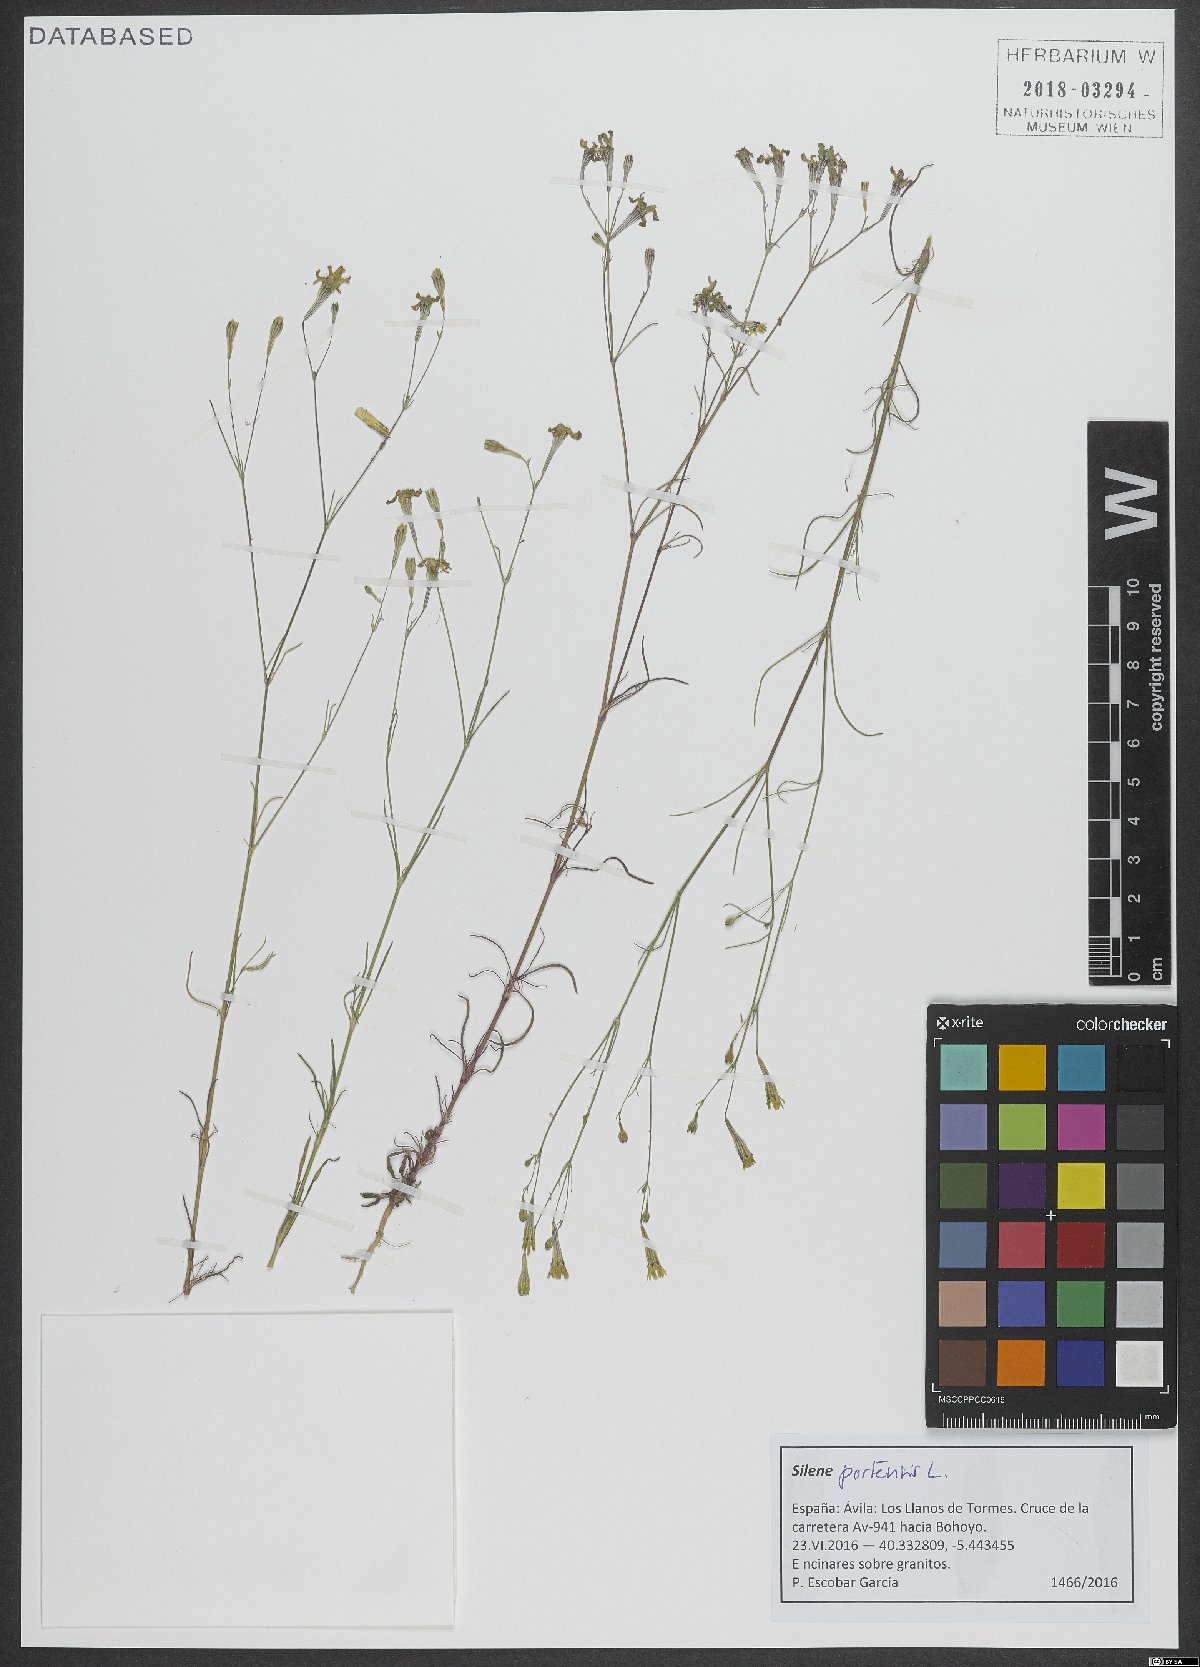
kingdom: Plantae
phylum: Tracheophyta
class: Magnoliopsida
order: Caryophyllales
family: Caryophyllaceae
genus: Silene
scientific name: Silene portensis
